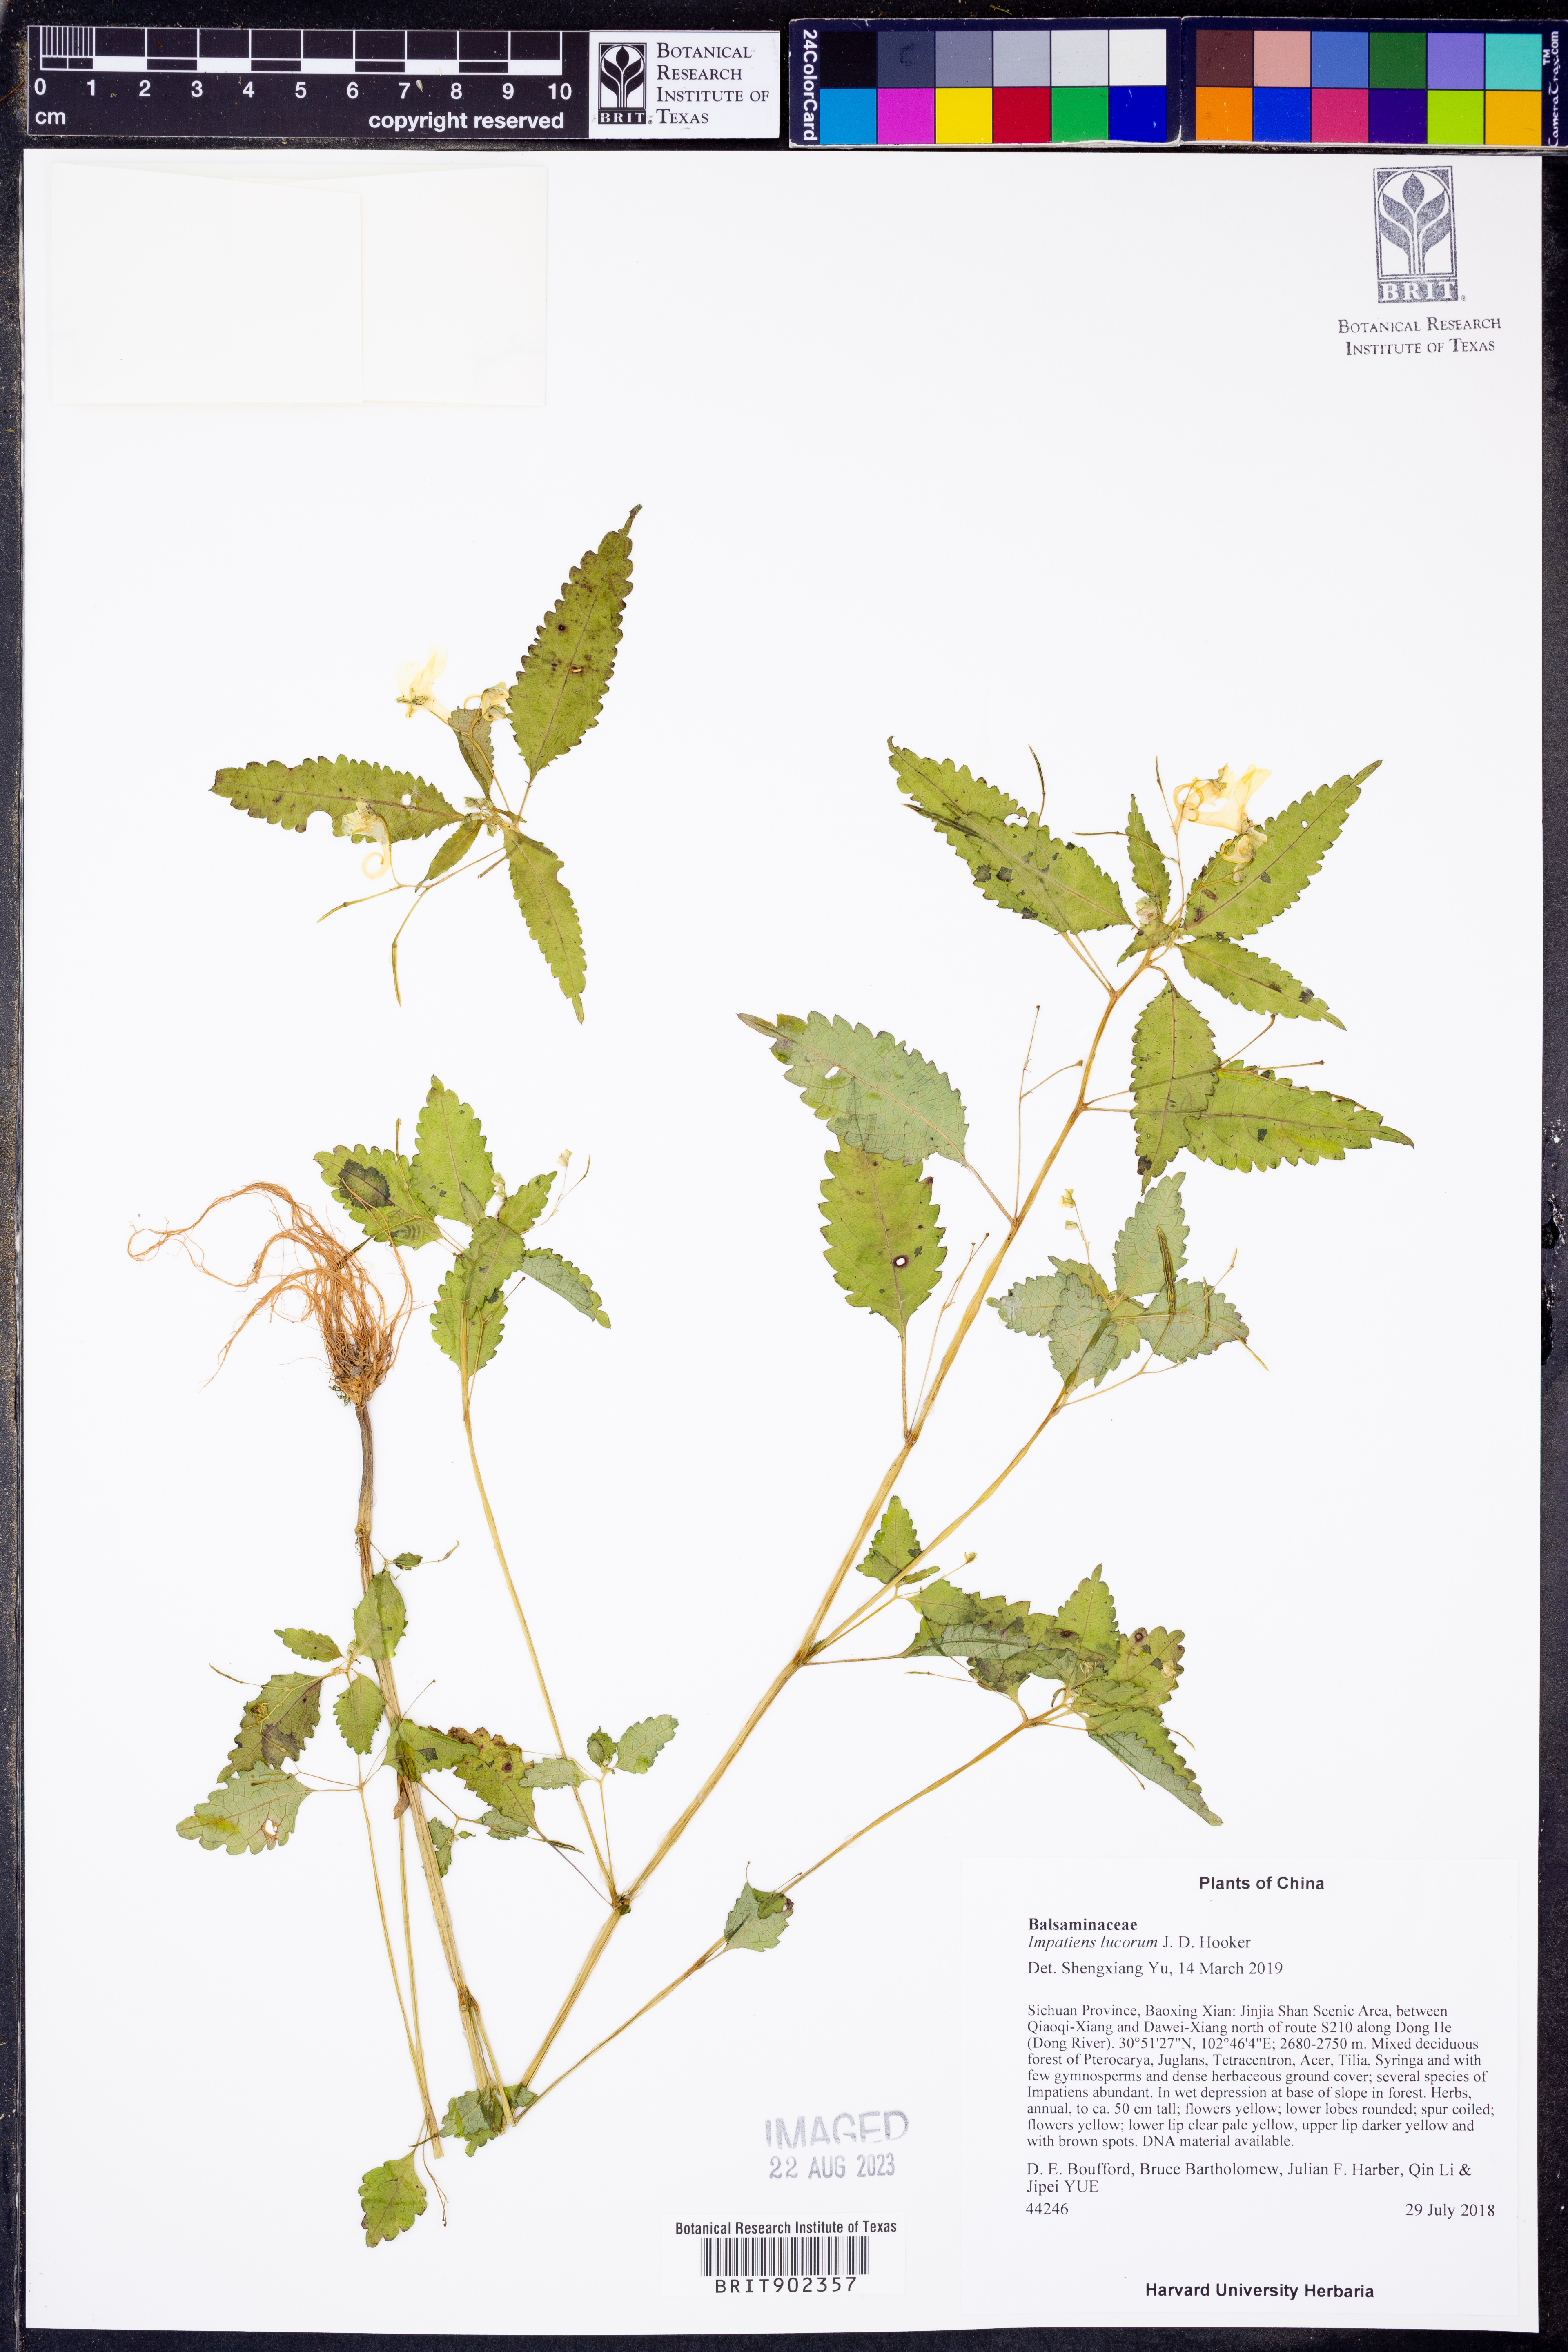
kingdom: Plantae
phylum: Tracheophyta
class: Magnoliopsida
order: Ericales
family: Balsaminaceae
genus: Impatiens
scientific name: Impatiens
